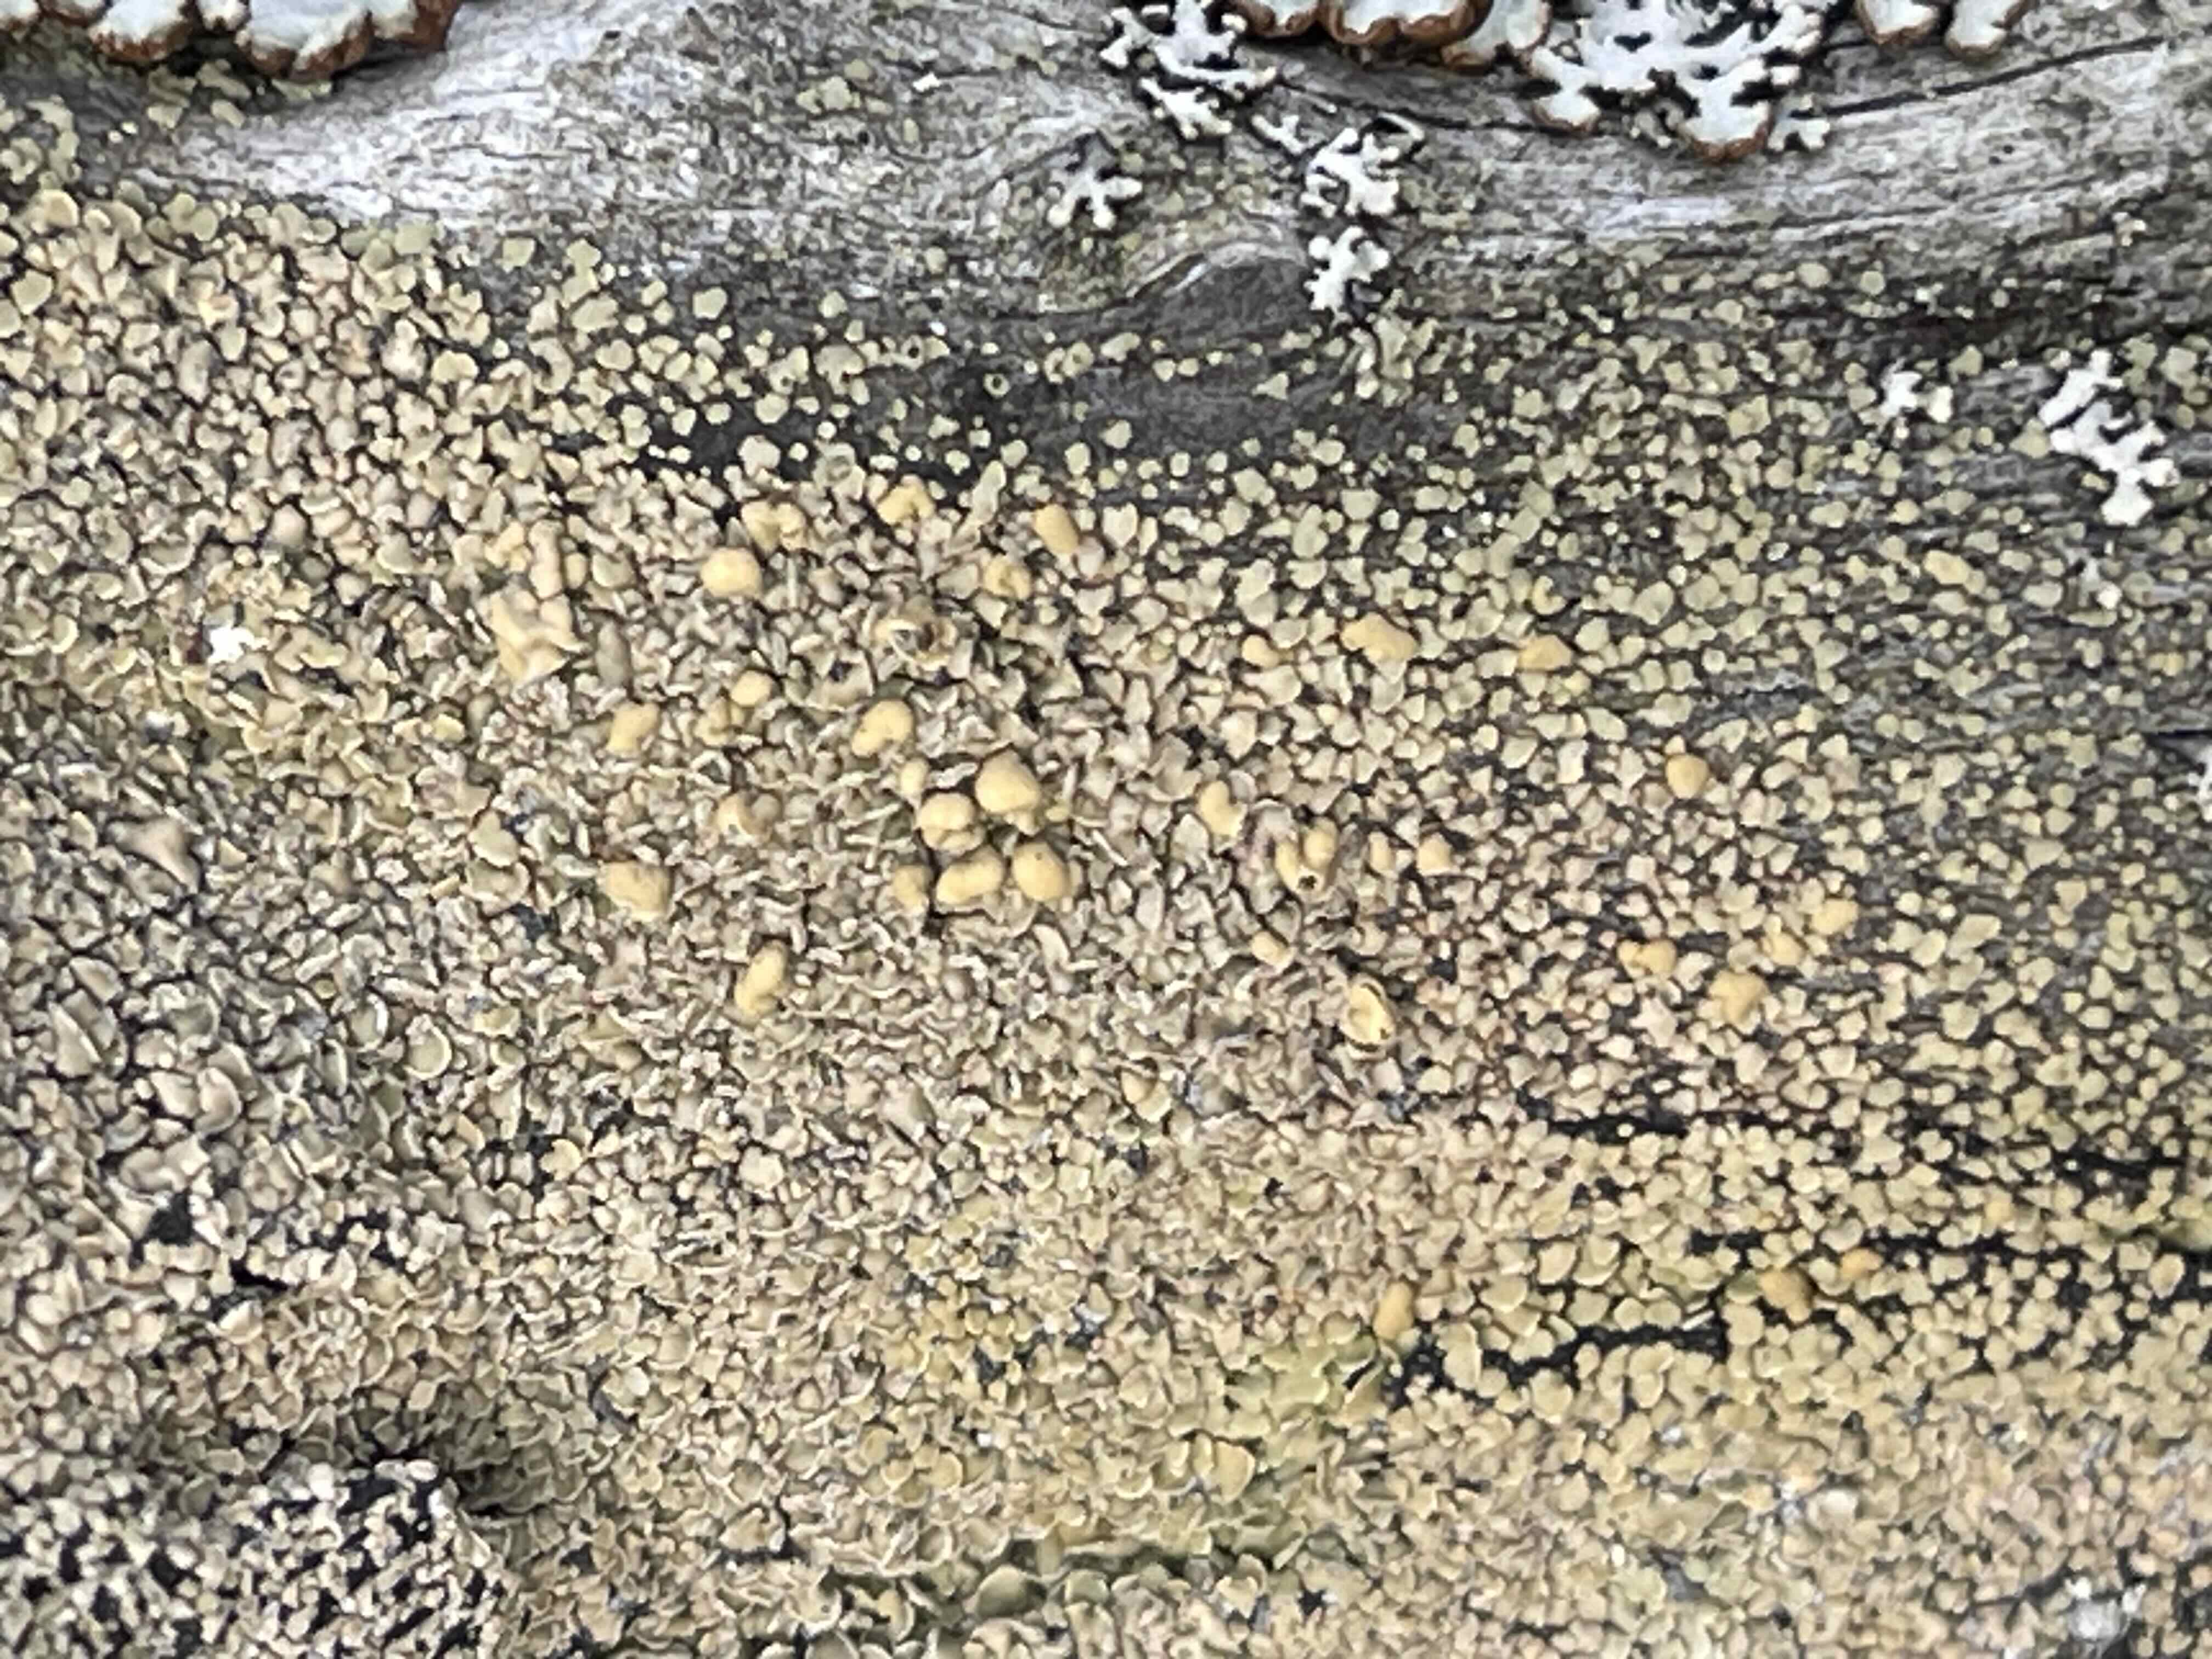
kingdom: Fungi
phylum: Ascomycota
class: Lecanoromycetes
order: Umbilicariales
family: Ophioparmaceae
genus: Hypocenomyce
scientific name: Hypocenomyce scalaris
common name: småskællet muslinglav
